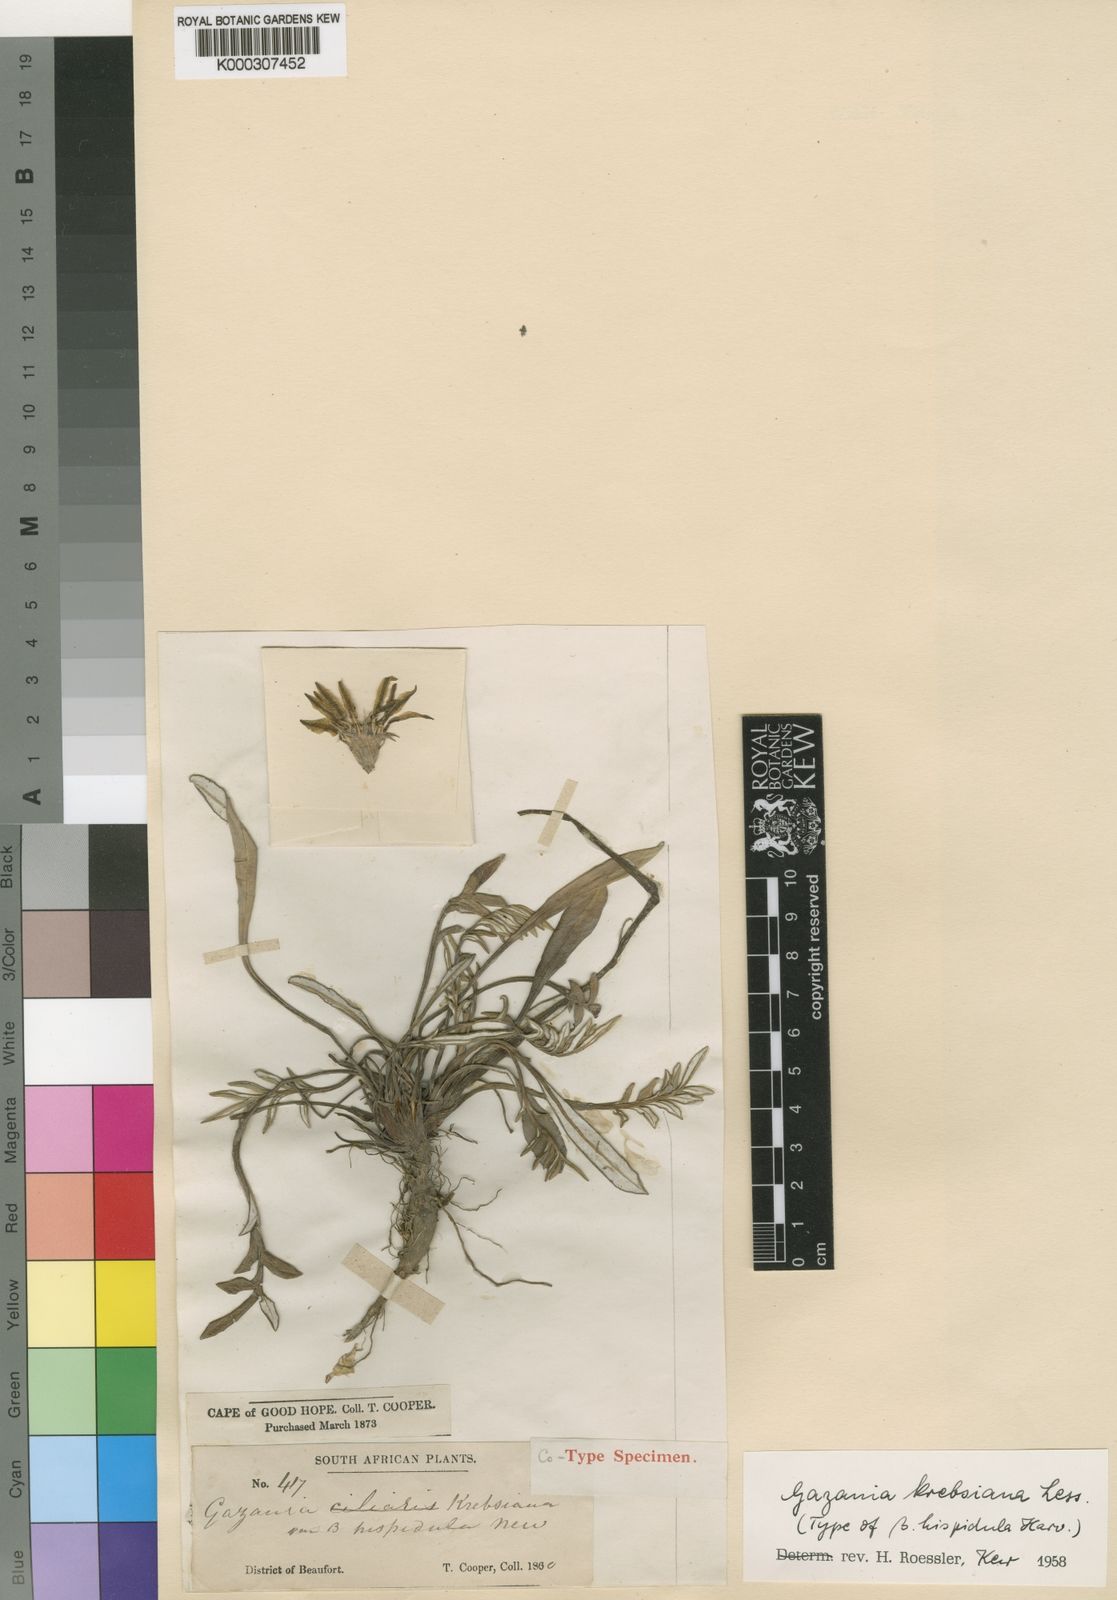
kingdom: Plantae
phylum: Tracheophyta
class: Magnoliopsida
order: Asterales
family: Asteraceae
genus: Gazania
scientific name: Gazania krebsiana
